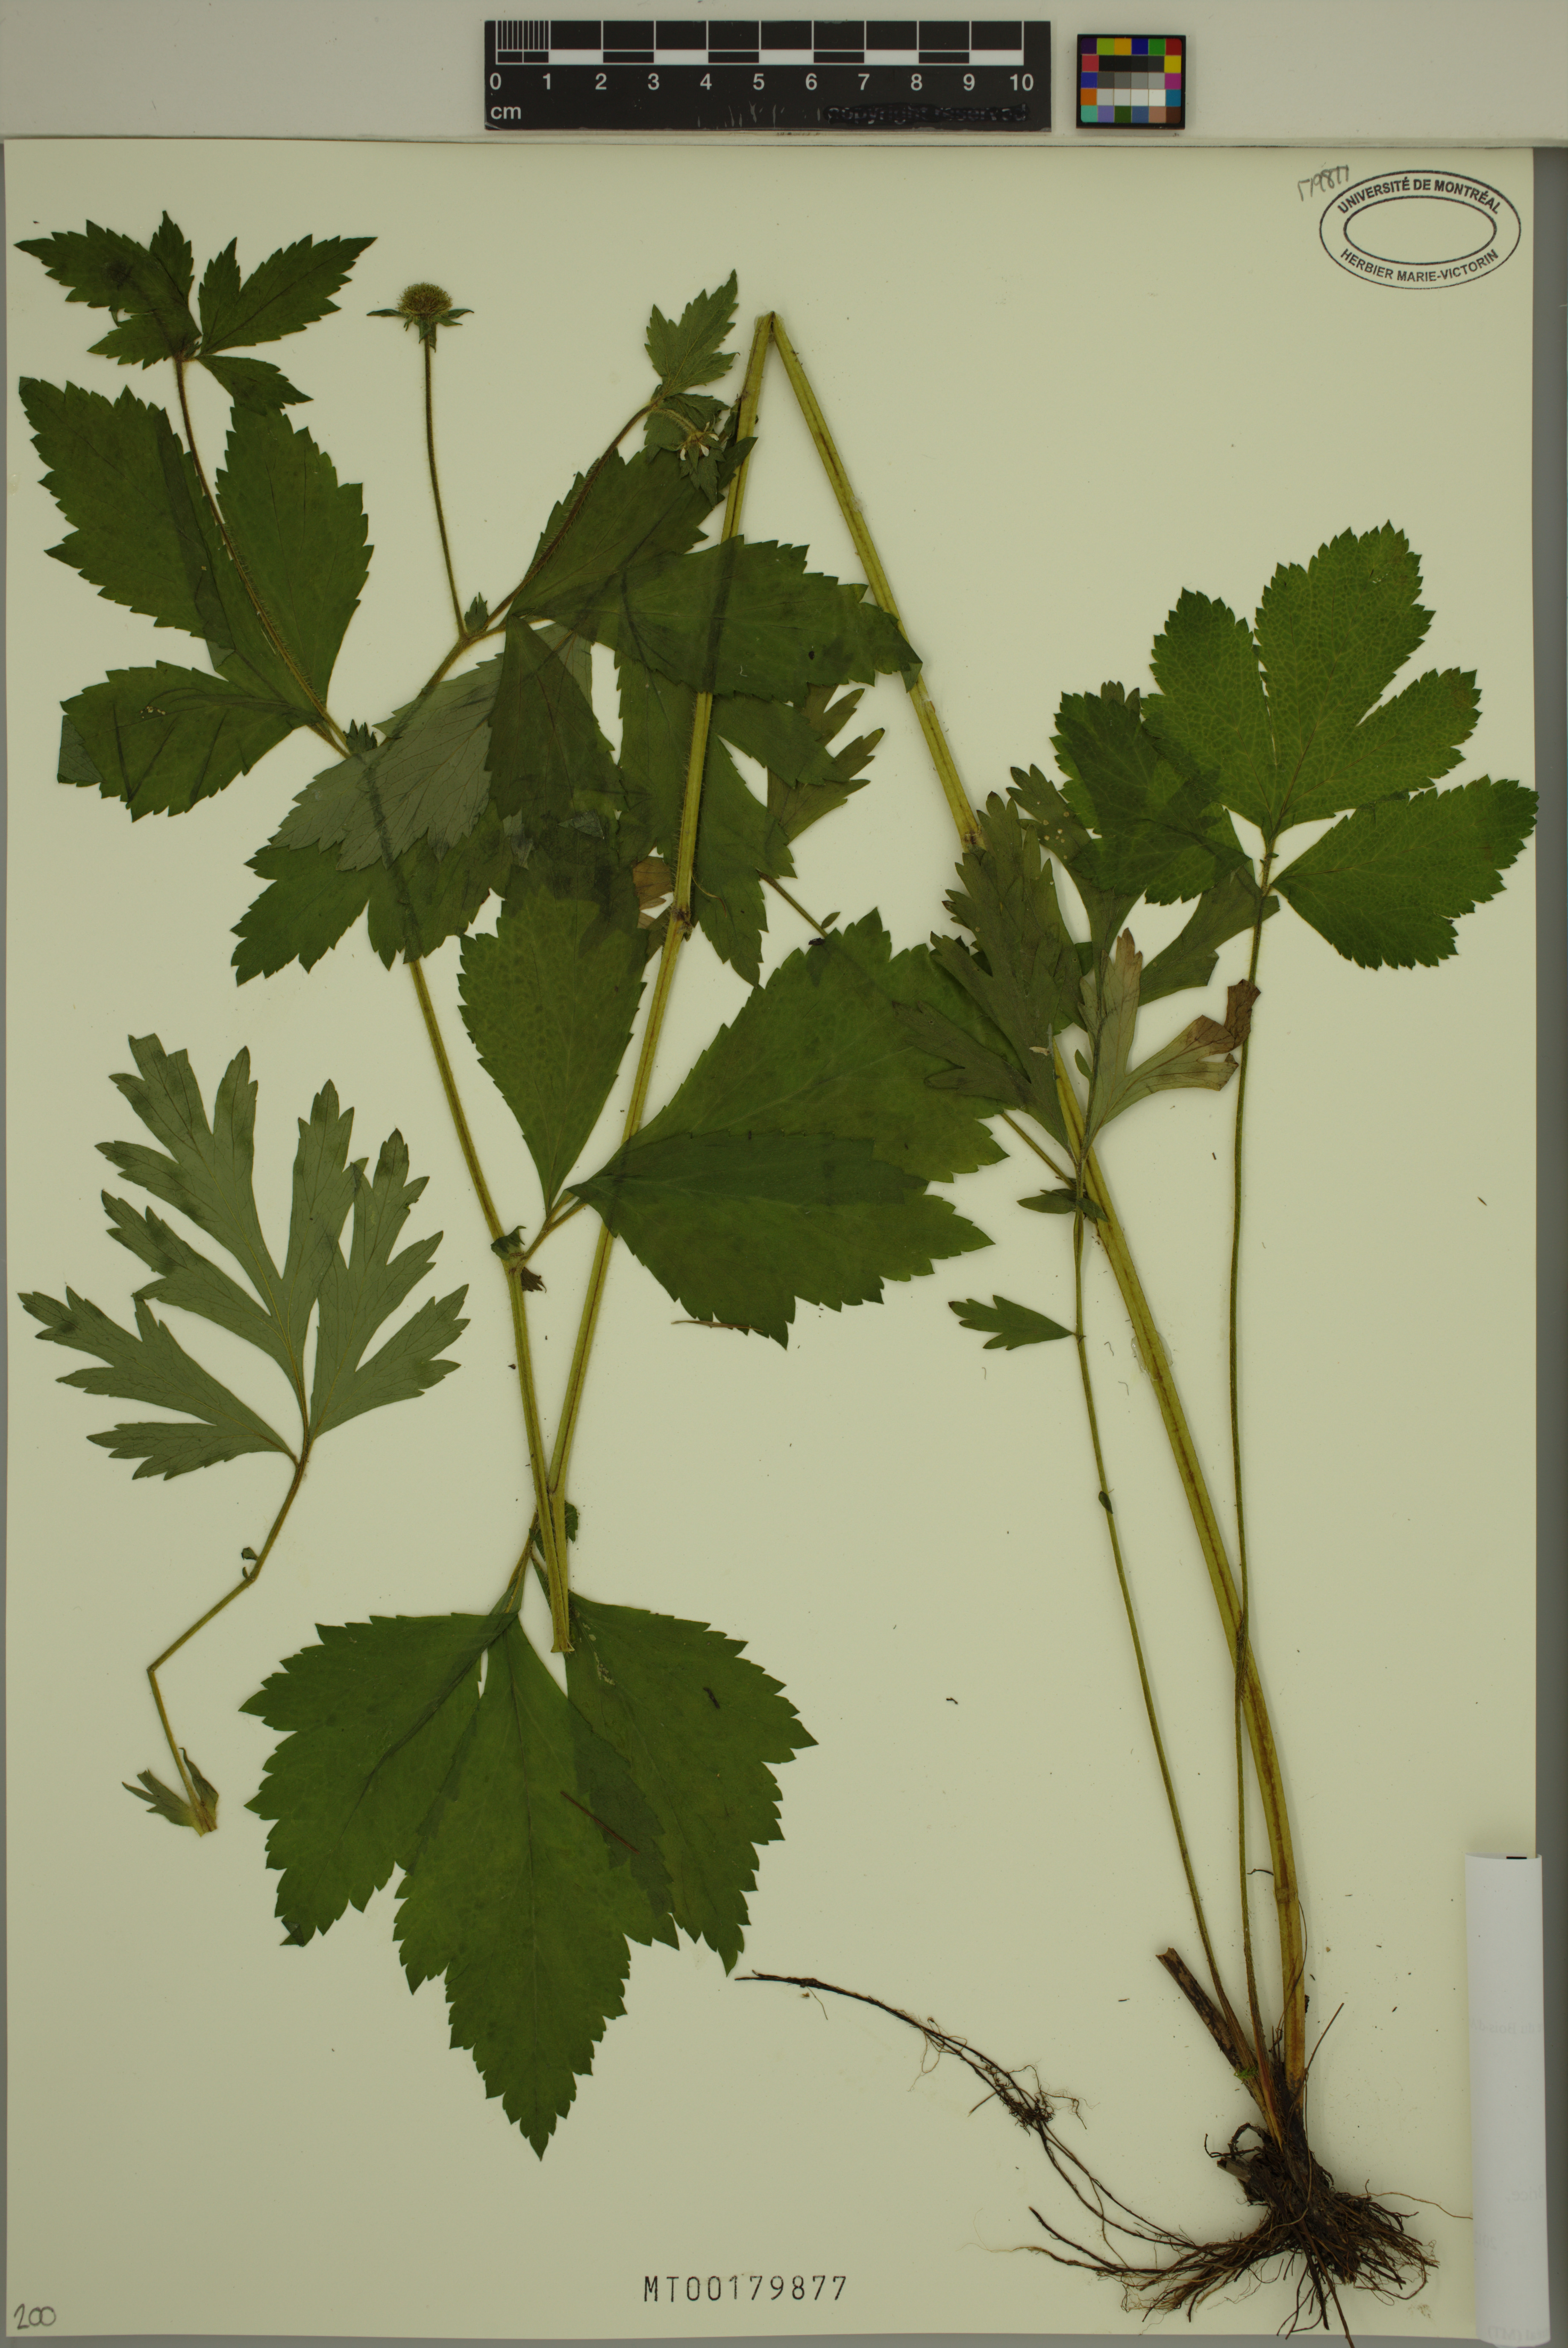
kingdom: Plantae
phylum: Tracheophyta
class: Magnoliopsida
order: Rosales
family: Rosaceae
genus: Geum
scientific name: Geum laciniatum
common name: Rough avens
